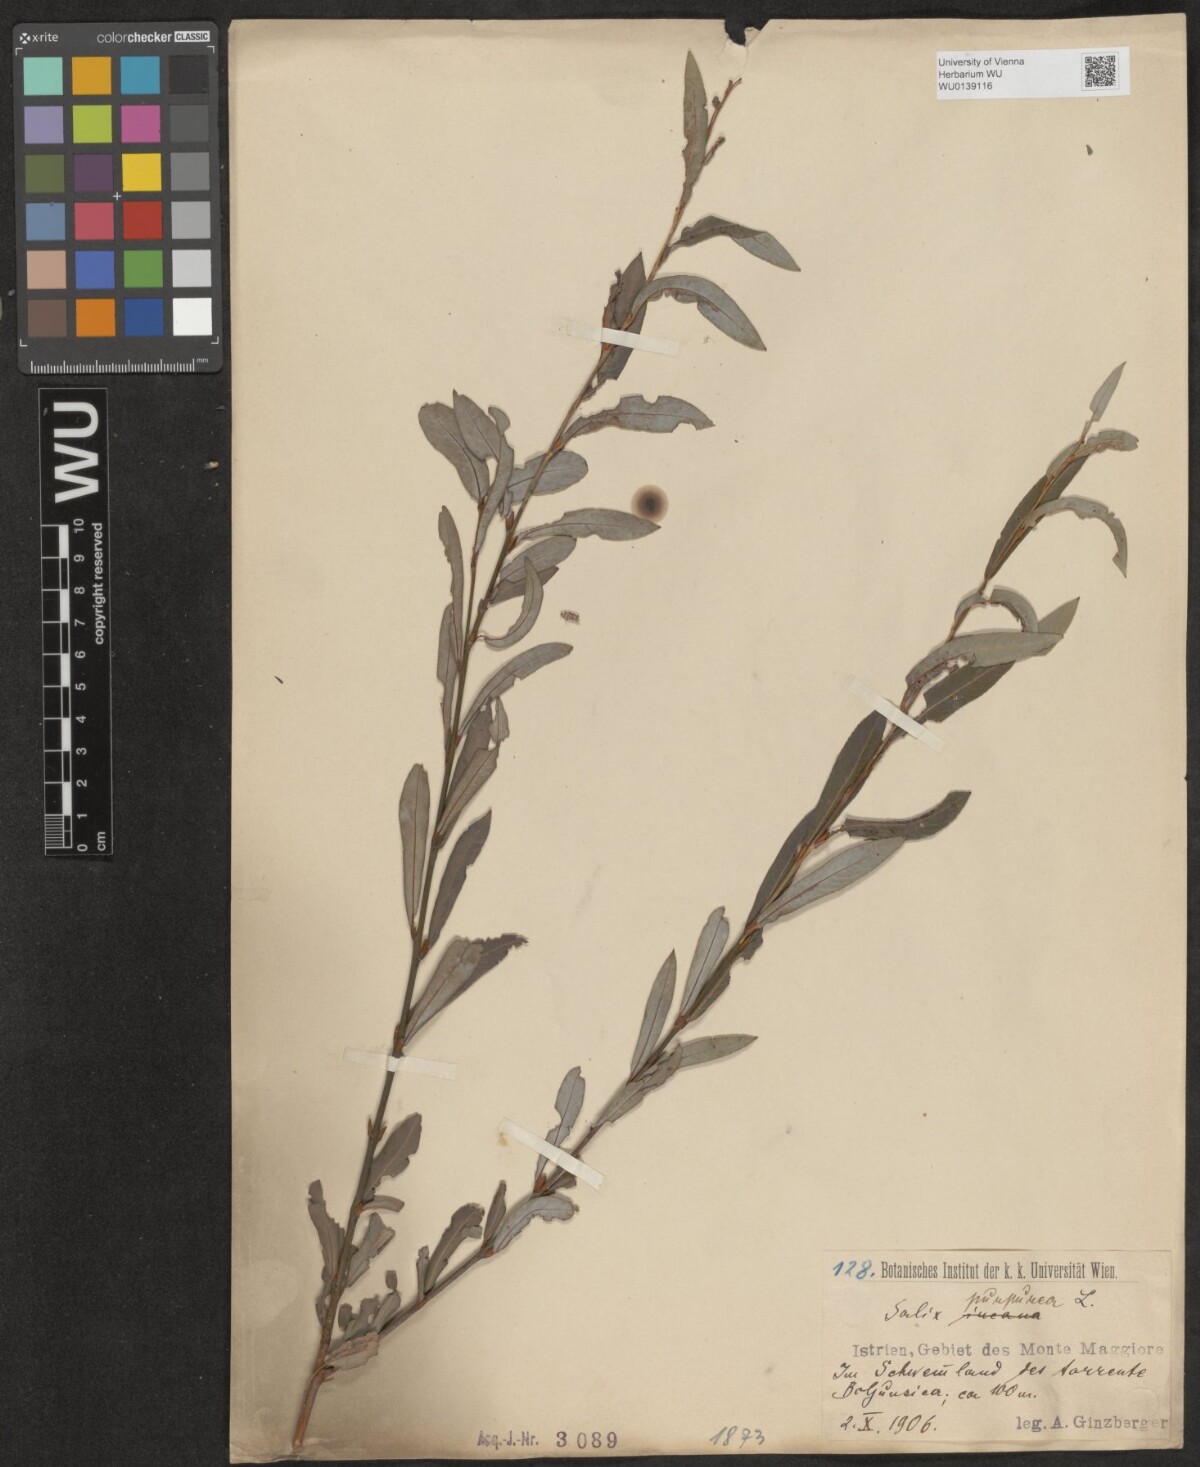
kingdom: Plantae
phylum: Tracheophyta
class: Magnoliopsida
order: Malpighiales
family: Salicaceae
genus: Salix
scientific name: Salix purpurea
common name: Purple willow
